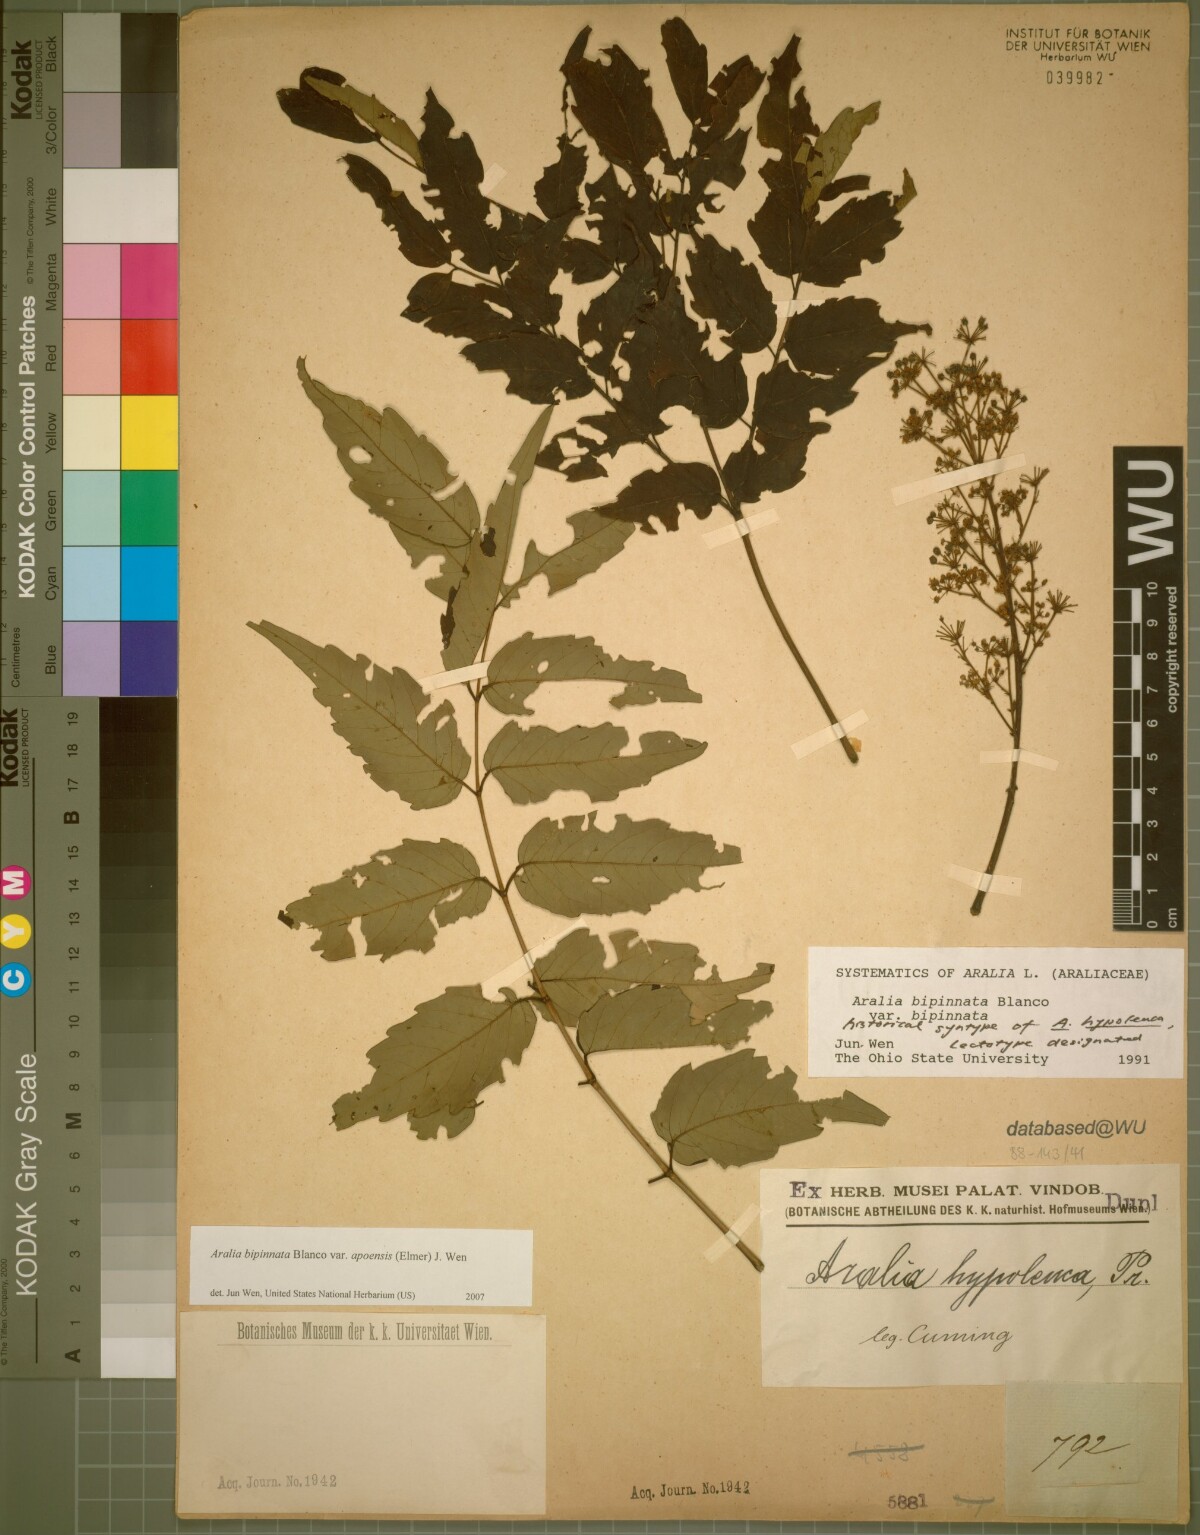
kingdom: Plantae
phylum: Tracheophyta
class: Magnoliopsida
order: Apiales
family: Araliaceae
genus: Aralia
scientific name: Aralia bipinnata
